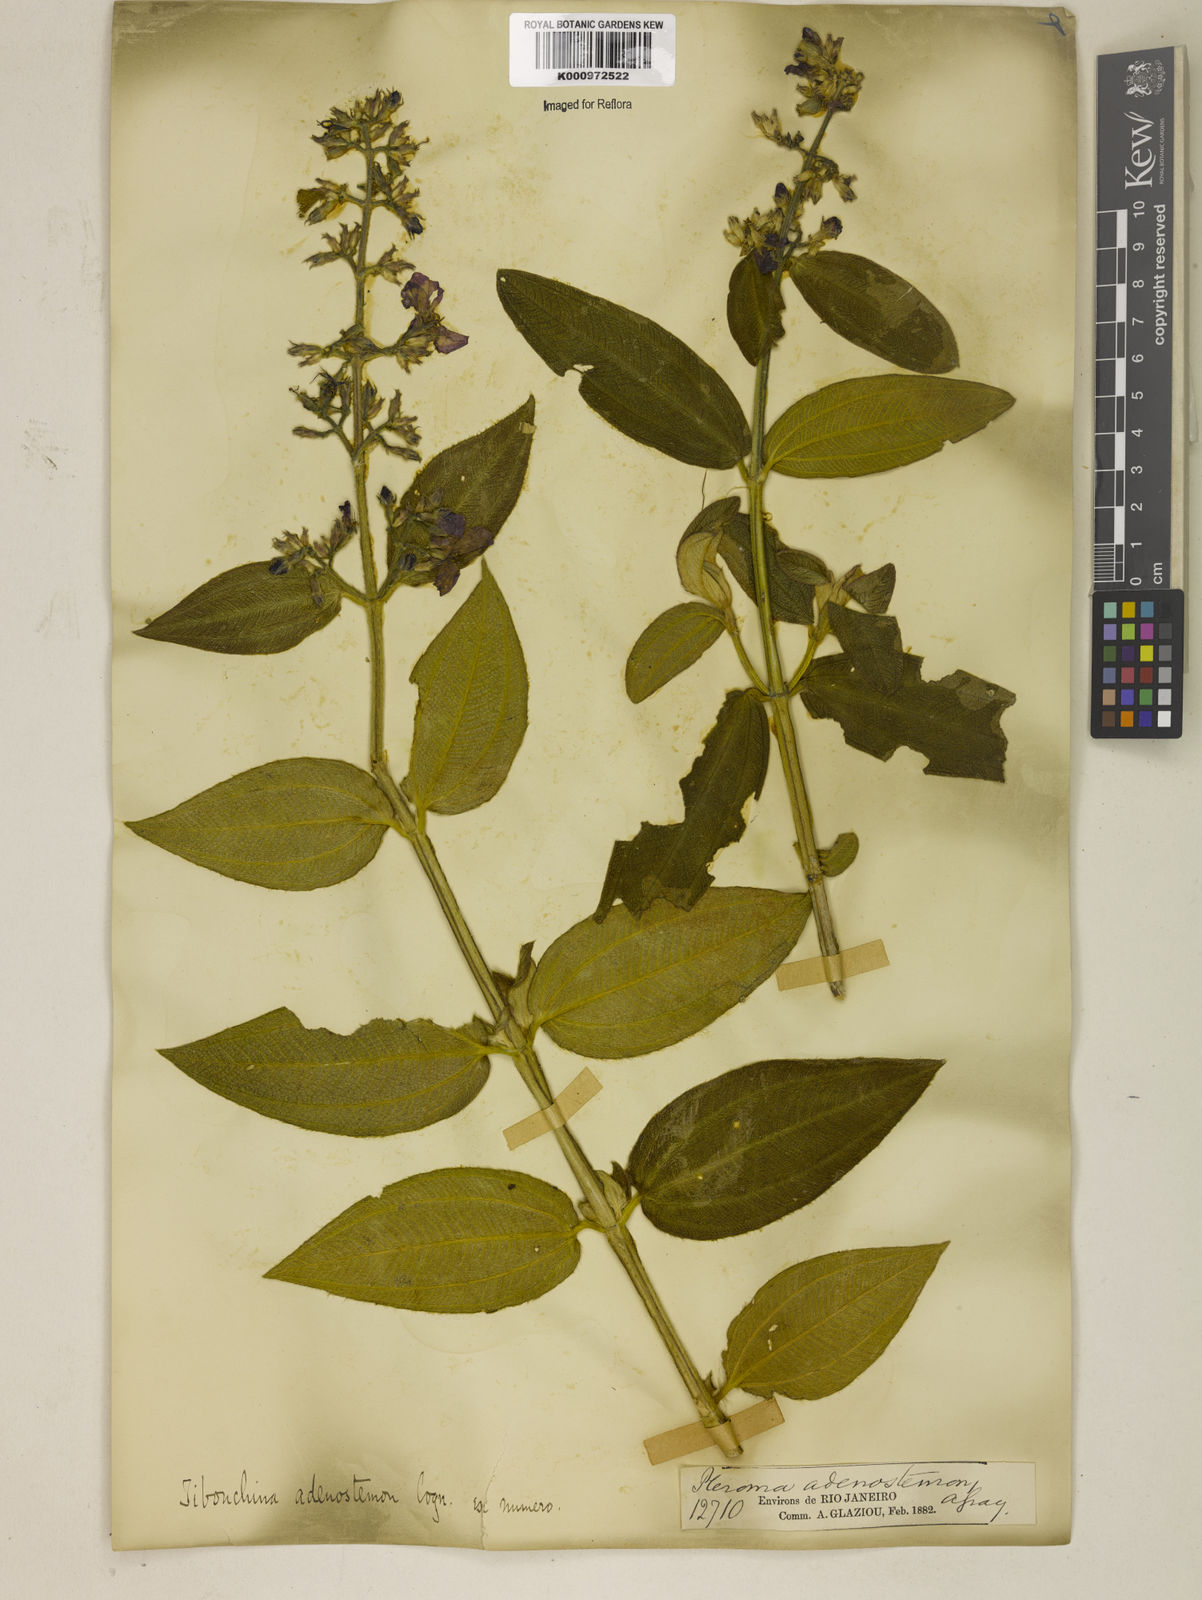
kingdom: Plantae
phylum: Tracheophyta
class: Magnoliopsida
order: Myrtales
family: Melastomataceae
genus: Pleroma
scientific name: Pleroma heteromallum
